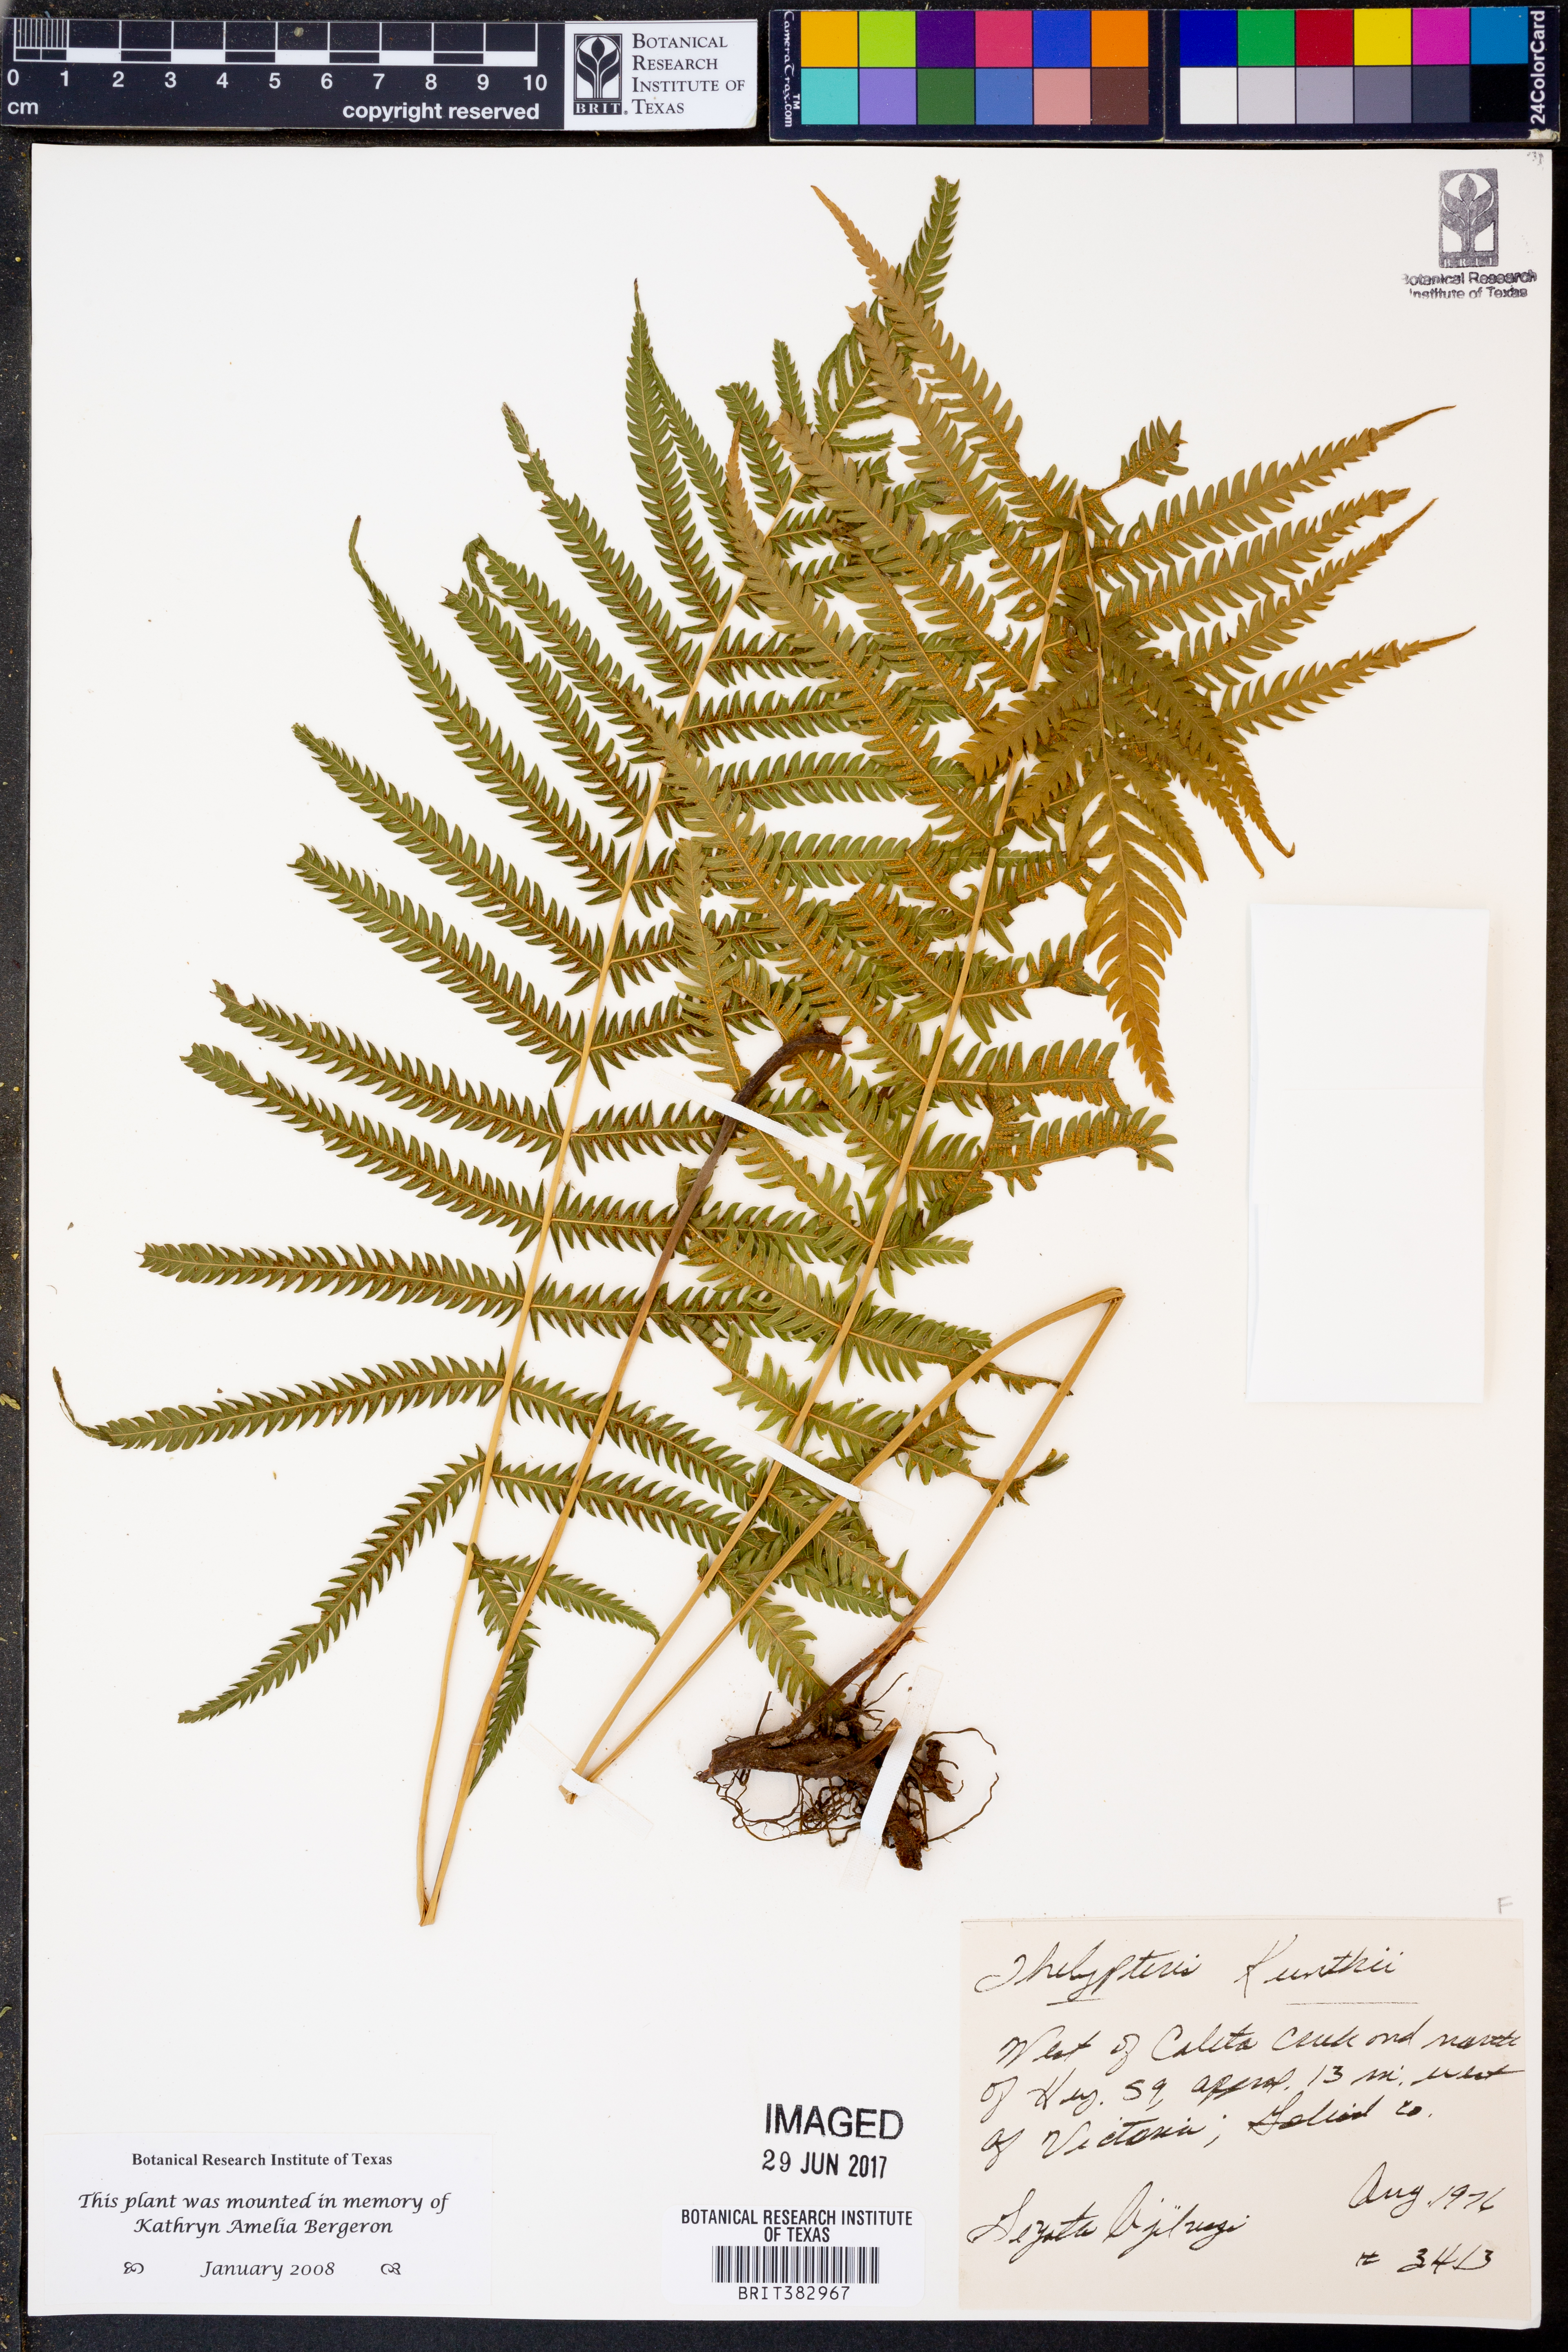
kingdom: Plantae
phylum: Tracheophyta
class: Polypodiopsida
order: Polypodiales
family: Thelypteridaceae
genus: Pelazoneuron
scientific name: Pelazoneuron kunthii
